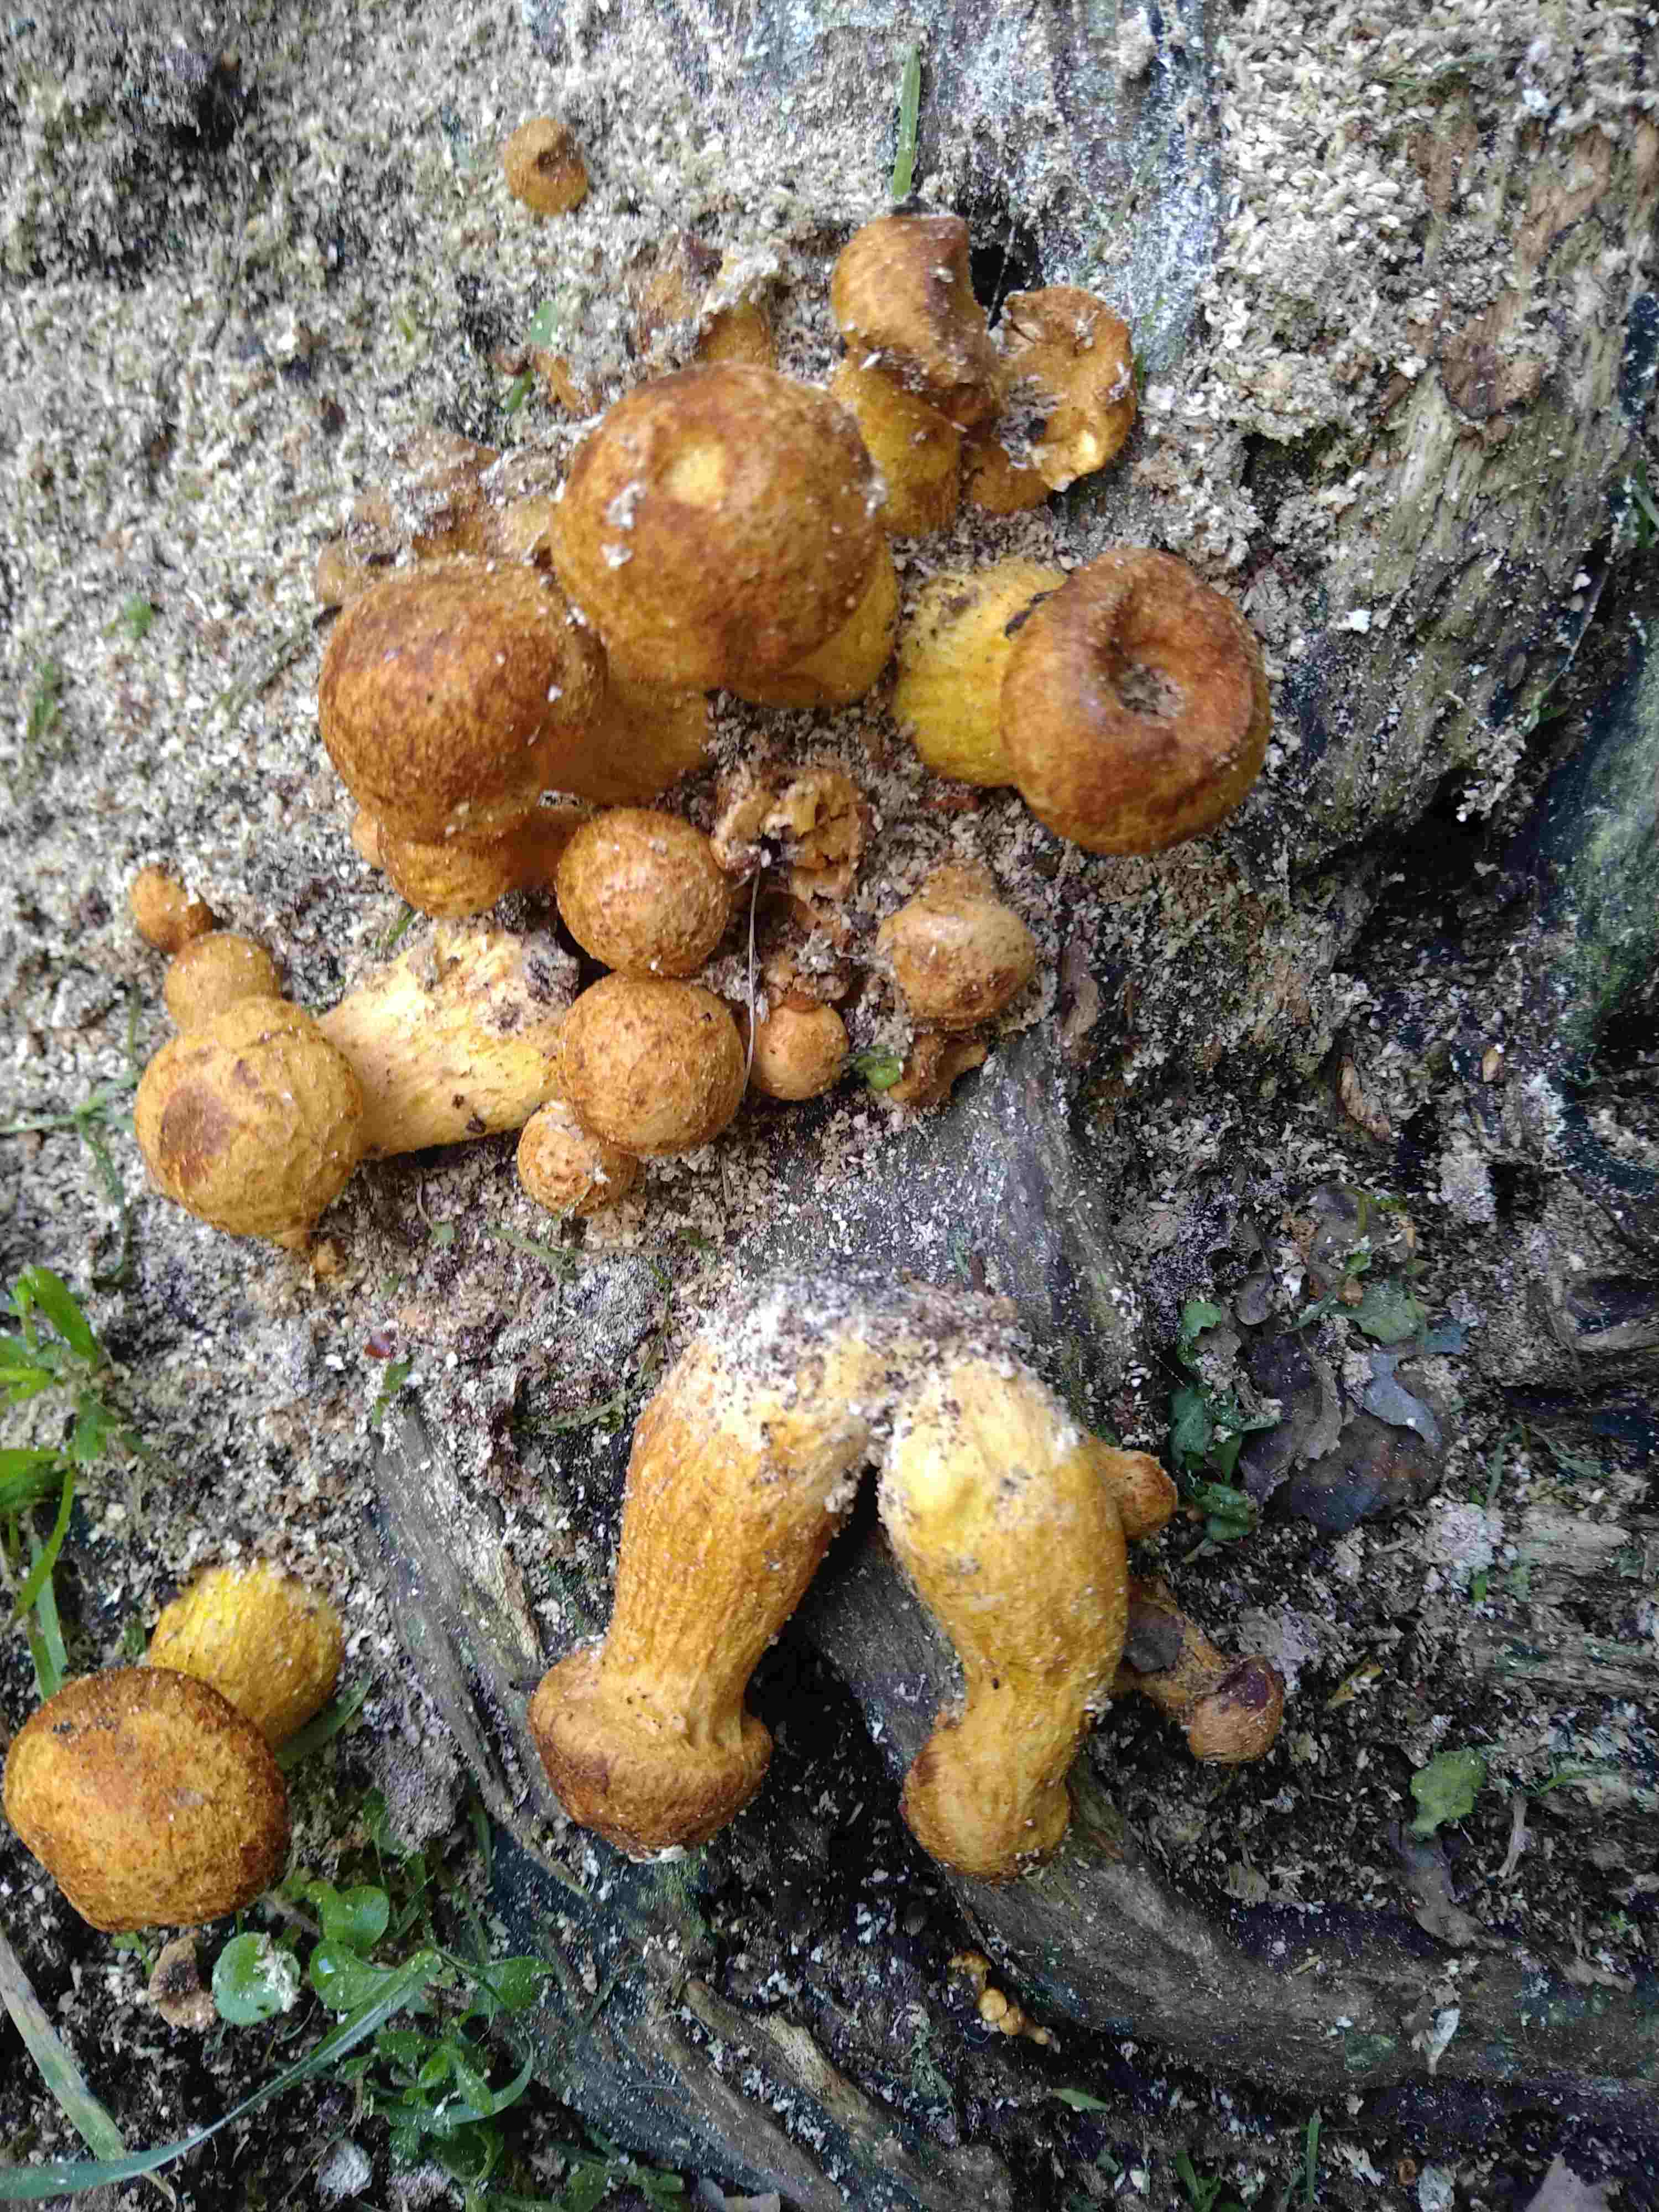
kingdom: Fungi
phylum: Basidiomycota
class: Agaricomycetes
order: Agaricales
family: Hymenogastraceae
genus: Gymnopilus
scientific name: Gymnopilus spectabilis
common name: fibret flammehat
